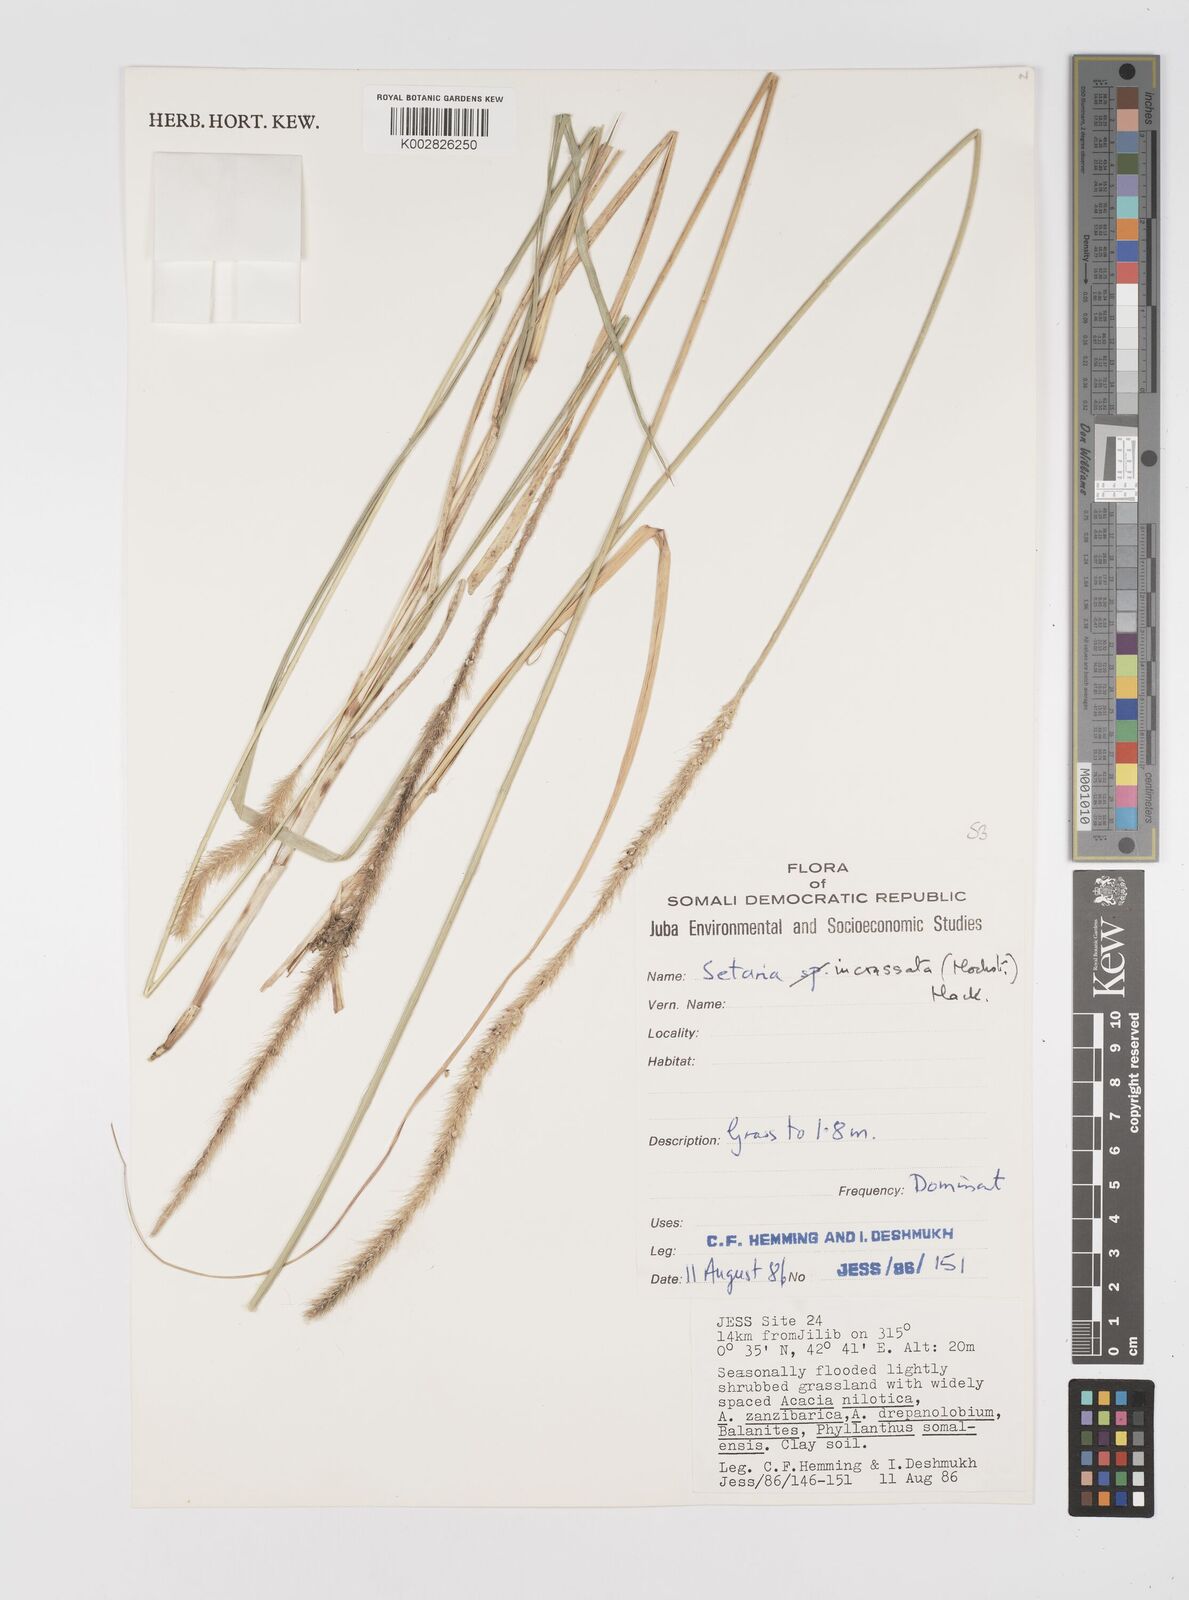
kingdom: Plantae
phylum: Tracheophyta
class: Liliopsida
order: Poales
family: Poaceae
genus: Setaria
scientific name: Setaria incrassata
